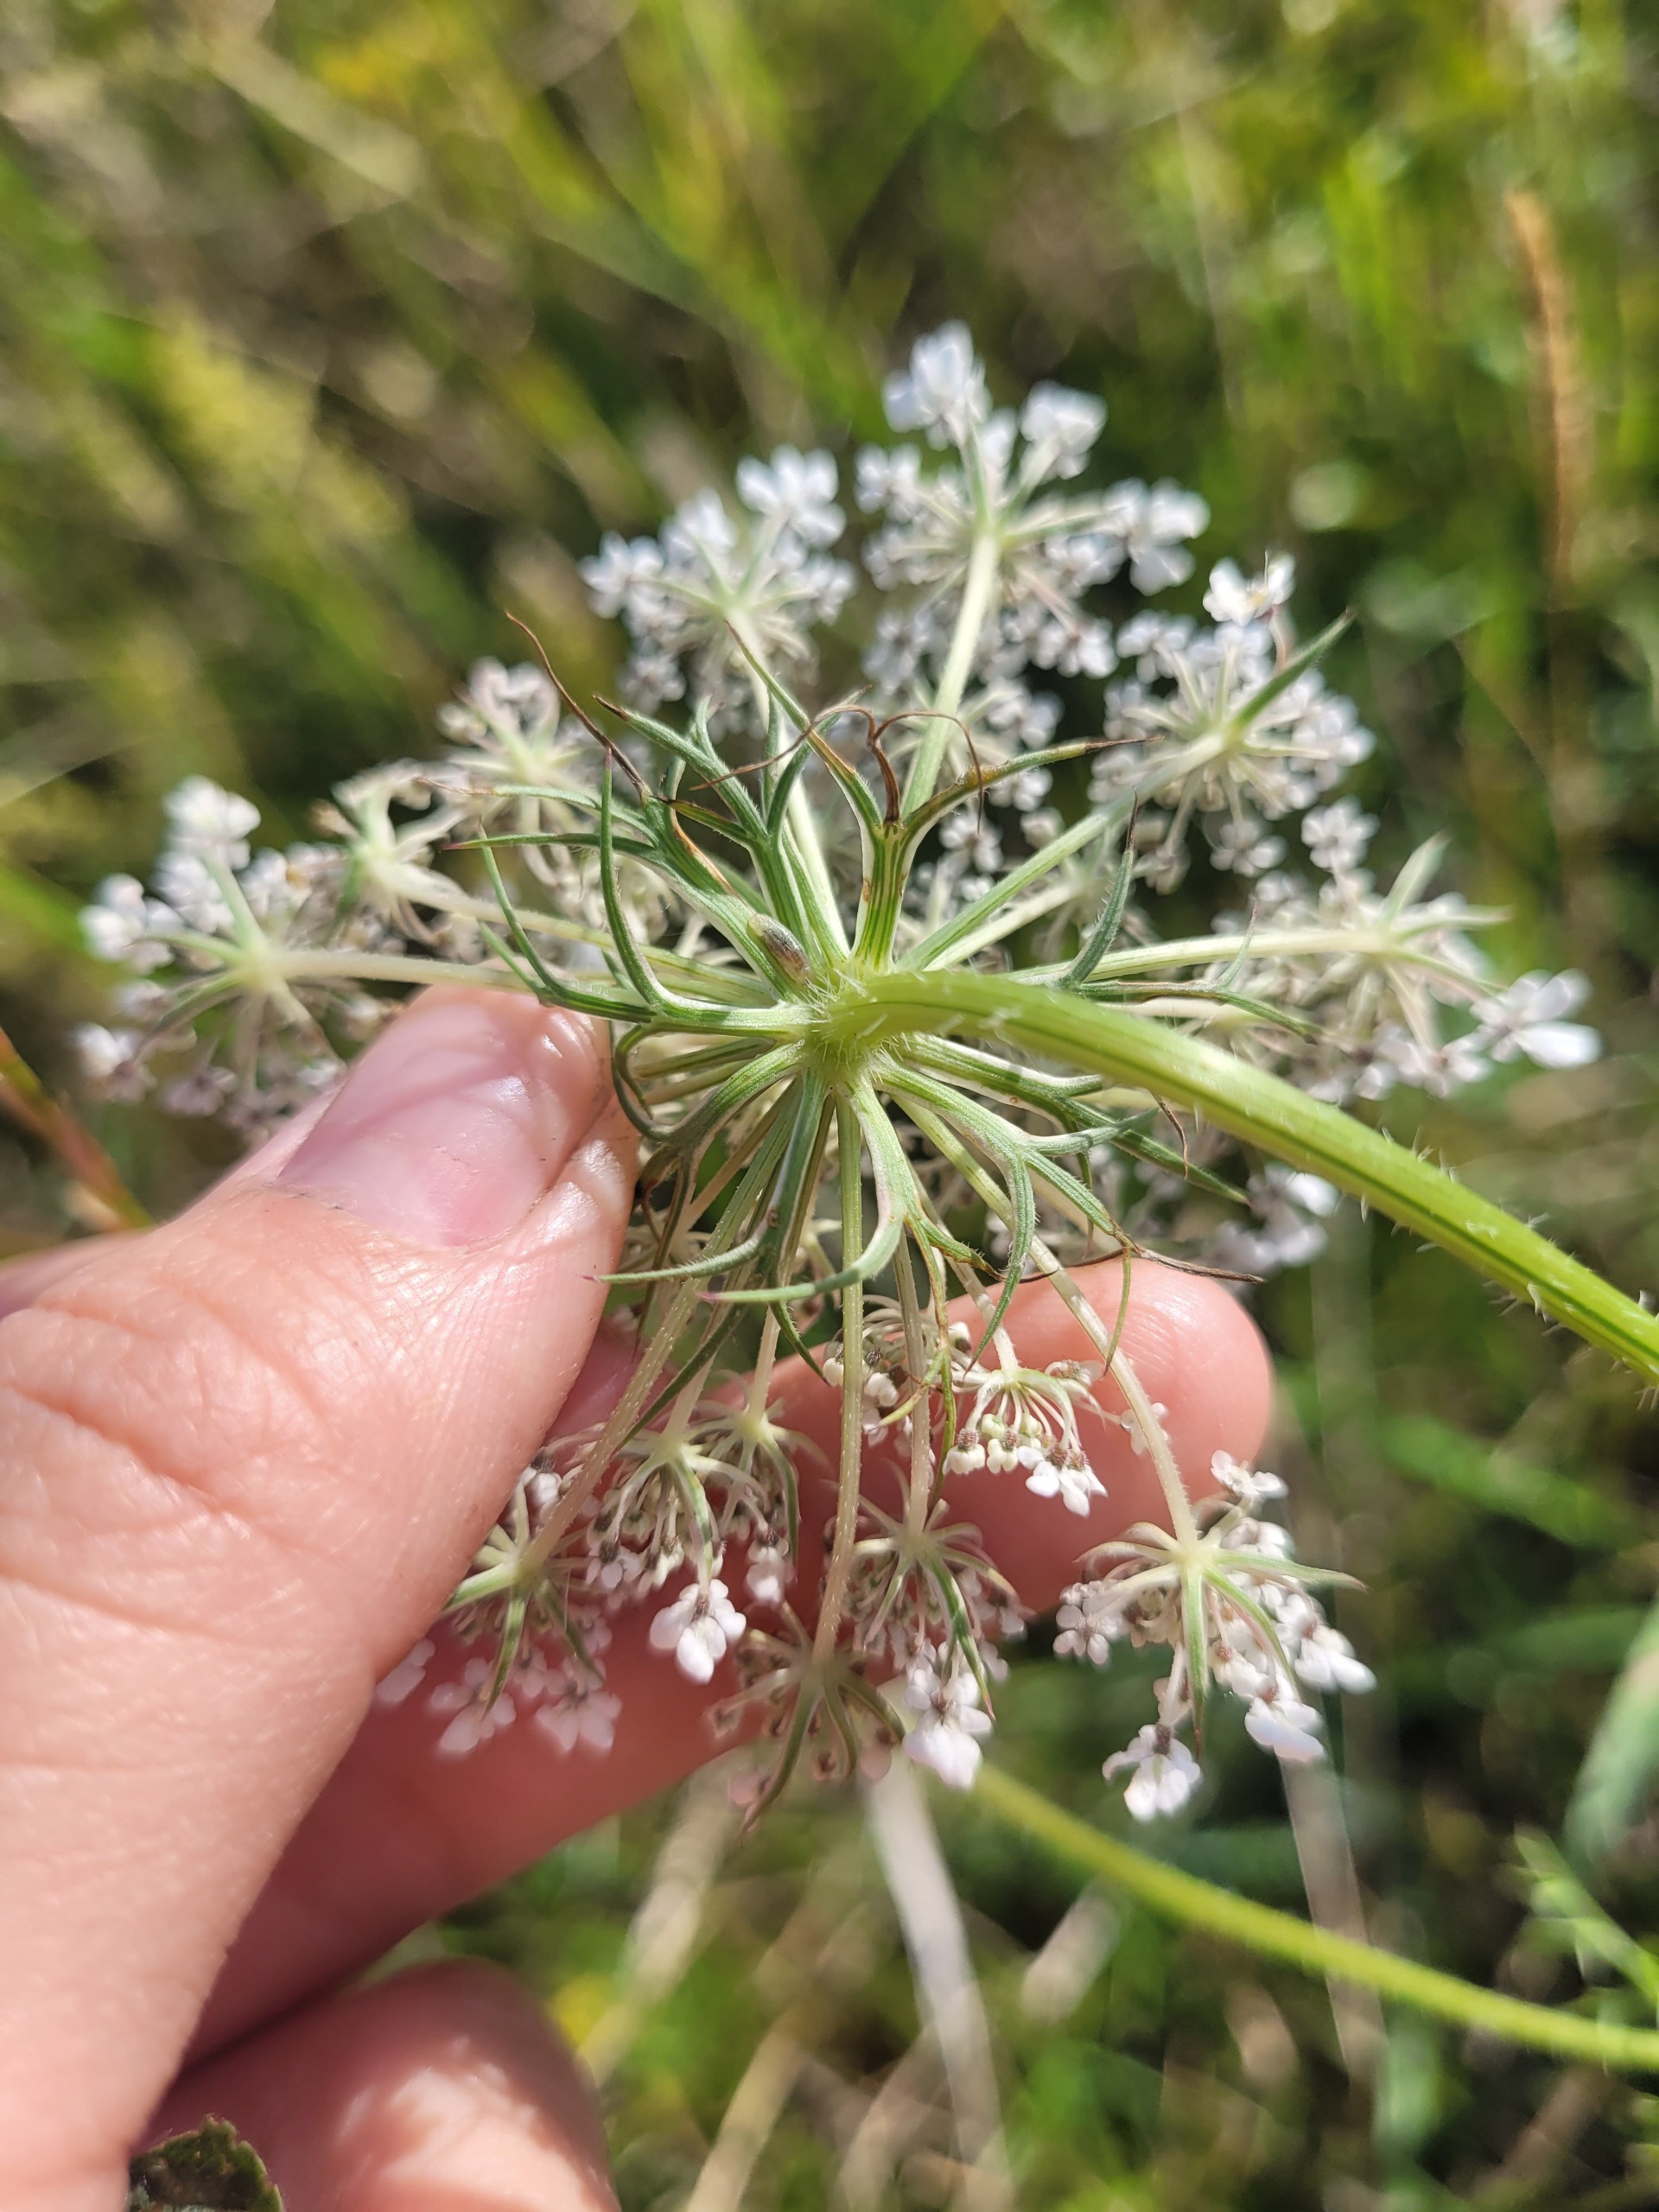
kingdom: Plantae
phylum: Tracheophyta
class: Magnoliopsida
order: Apiales
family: Apiaceae
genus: Daucus
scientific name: Daucus carota
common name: Gulerod
